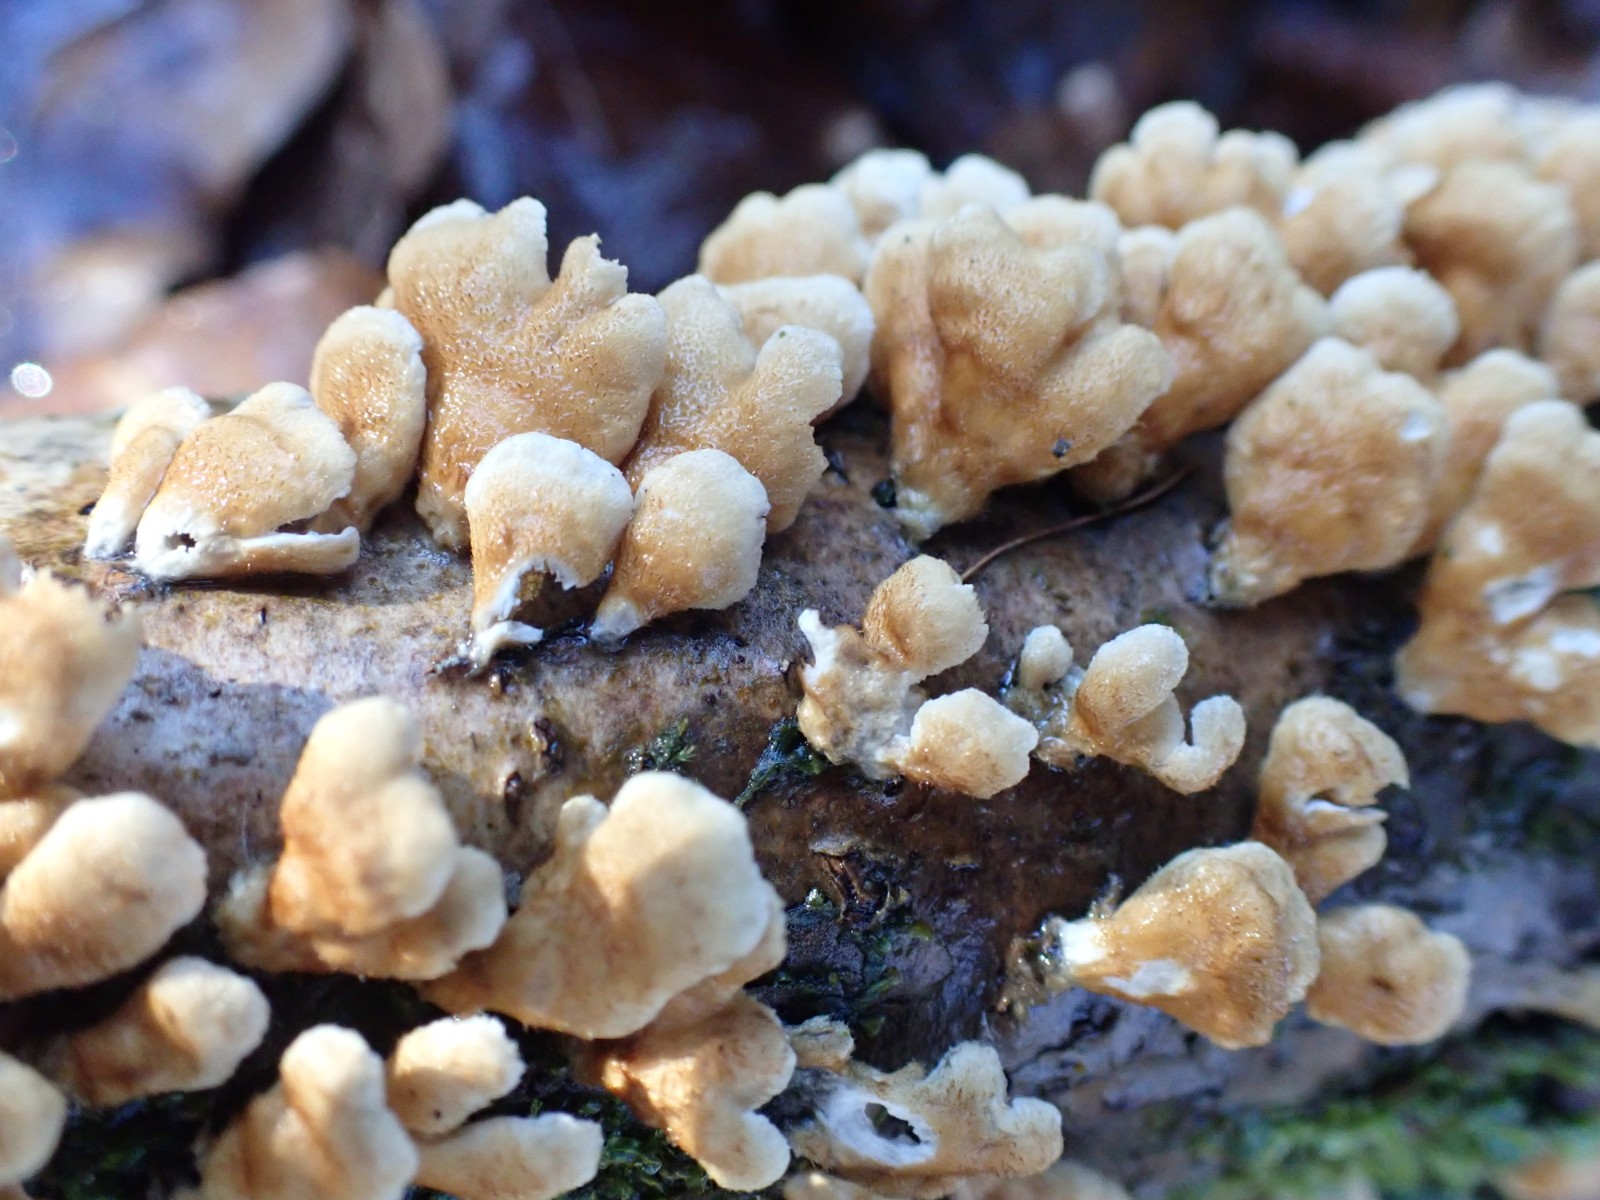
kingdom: Fungi
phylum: Basidiomycota
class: Agaricomycetes
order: Amylocorticiales
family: Amylocorticiaceae
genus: Plicaturopsis
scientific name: Plicaturopsis crispa
